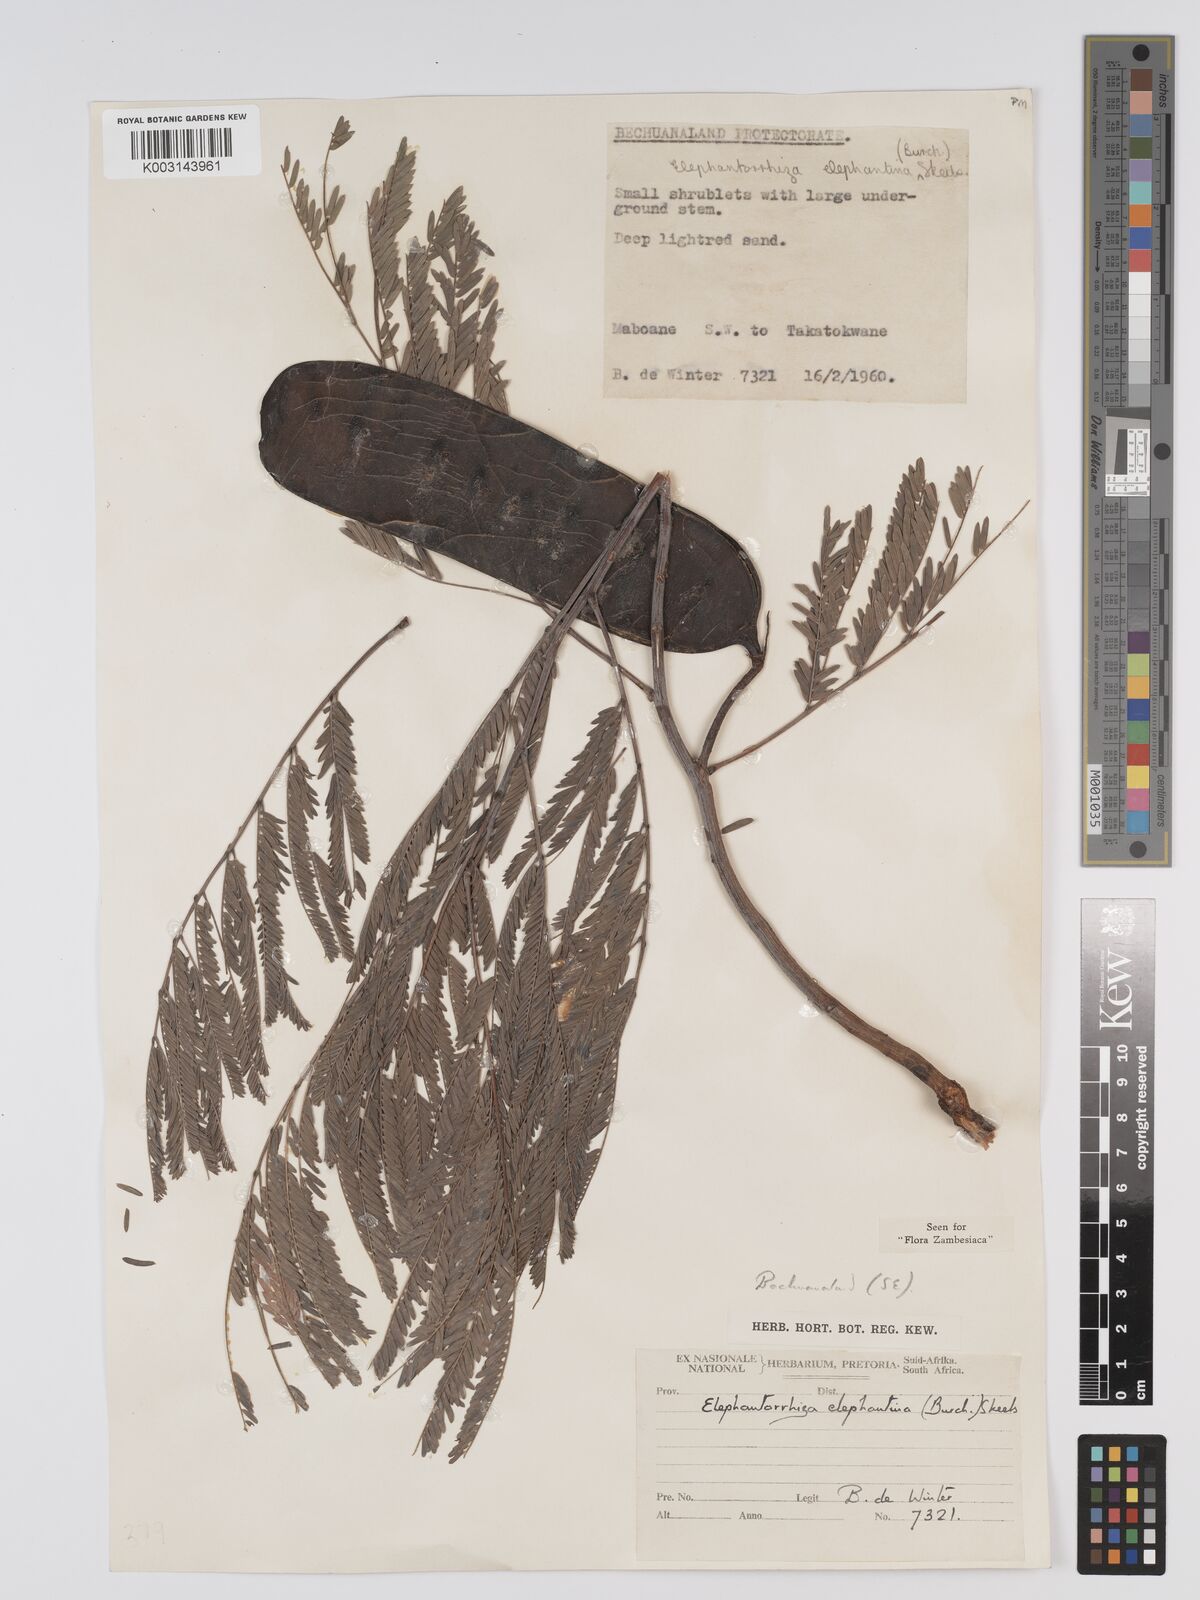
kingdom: Plantae
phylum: Tracheophyta
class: Magnoliopsida
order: Fabales
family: Fabaceae
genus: Elephantorrhiza
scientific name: Elephantorrhiza elephantina
